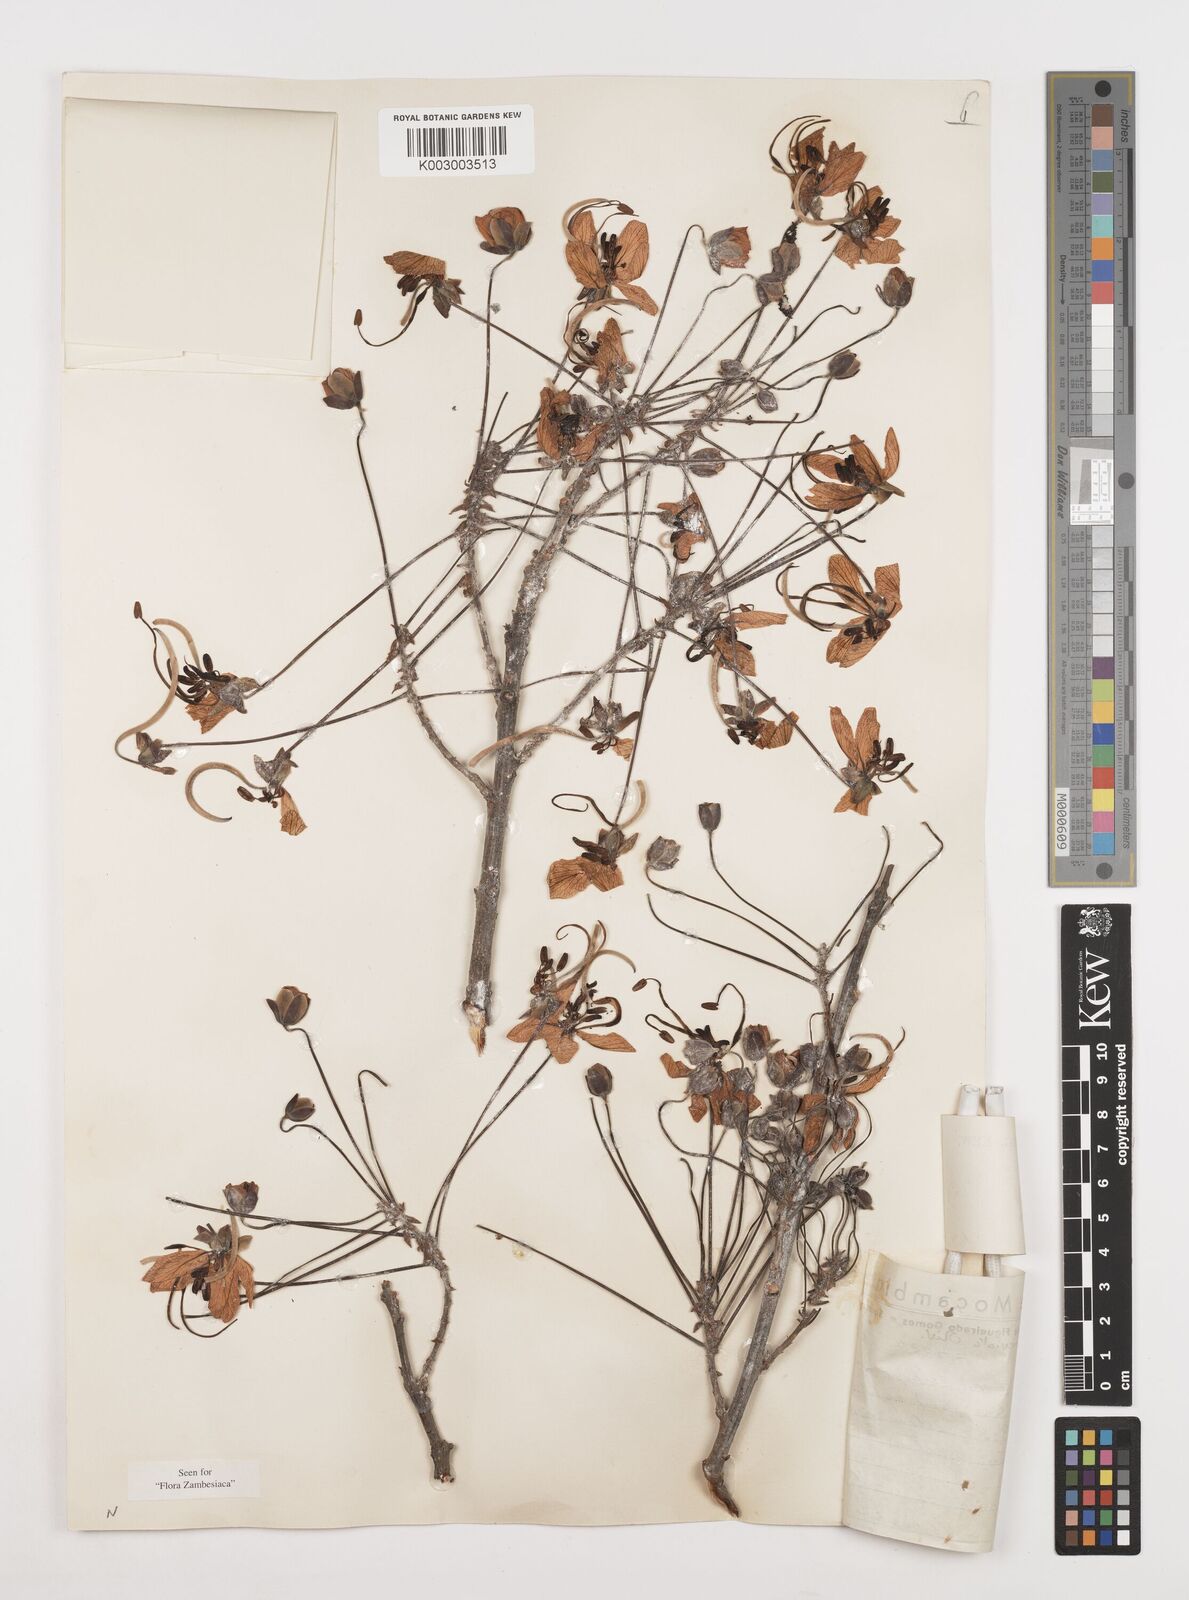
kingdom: Plantae
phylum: Tracheophyta
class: Magnoliopsida
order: Fabales
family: Fabaceae
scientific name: Fabaceae
